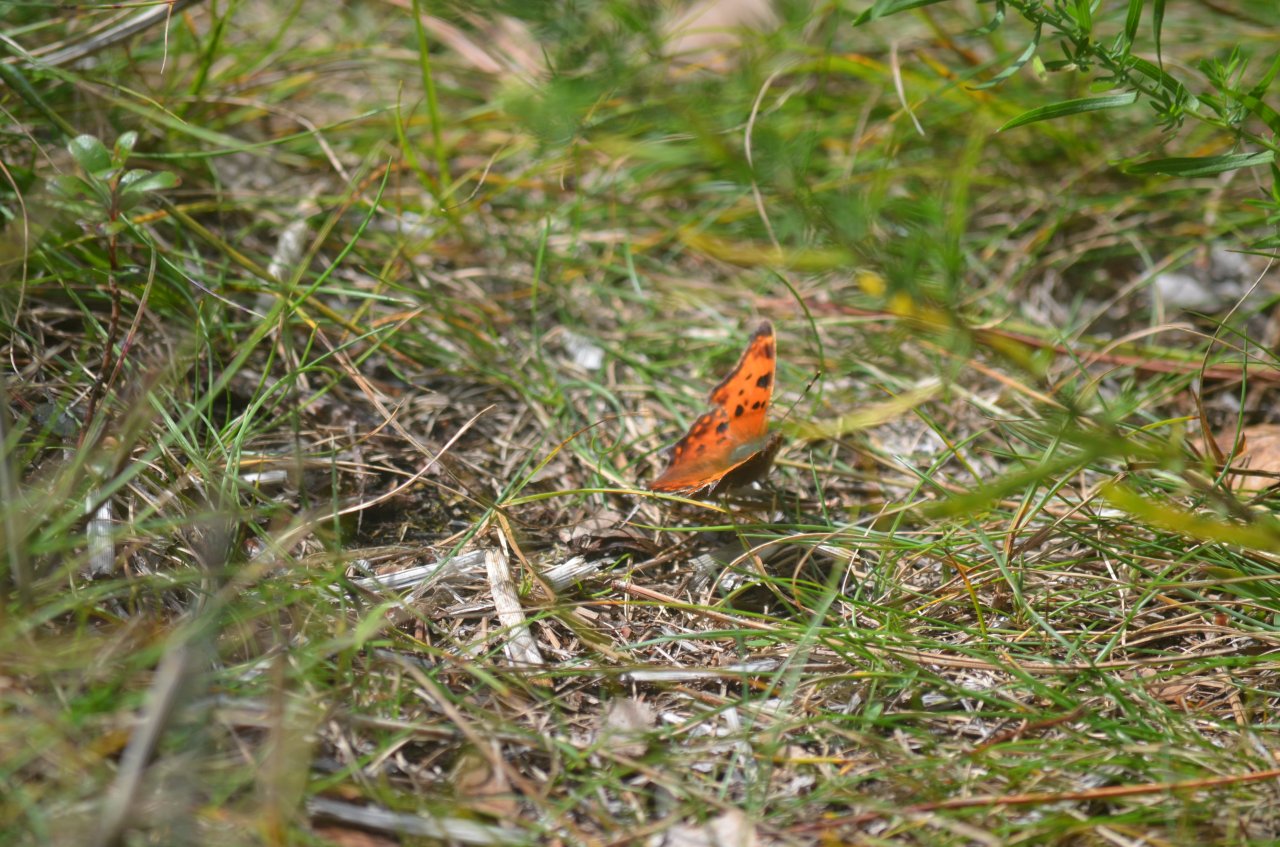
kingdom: Animalia
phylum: Arthropoda
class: Insecta
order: Lepidoptera
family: Nymphalidae
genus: Polygonia
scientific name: Polygonia comma
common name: Eastern Comma
